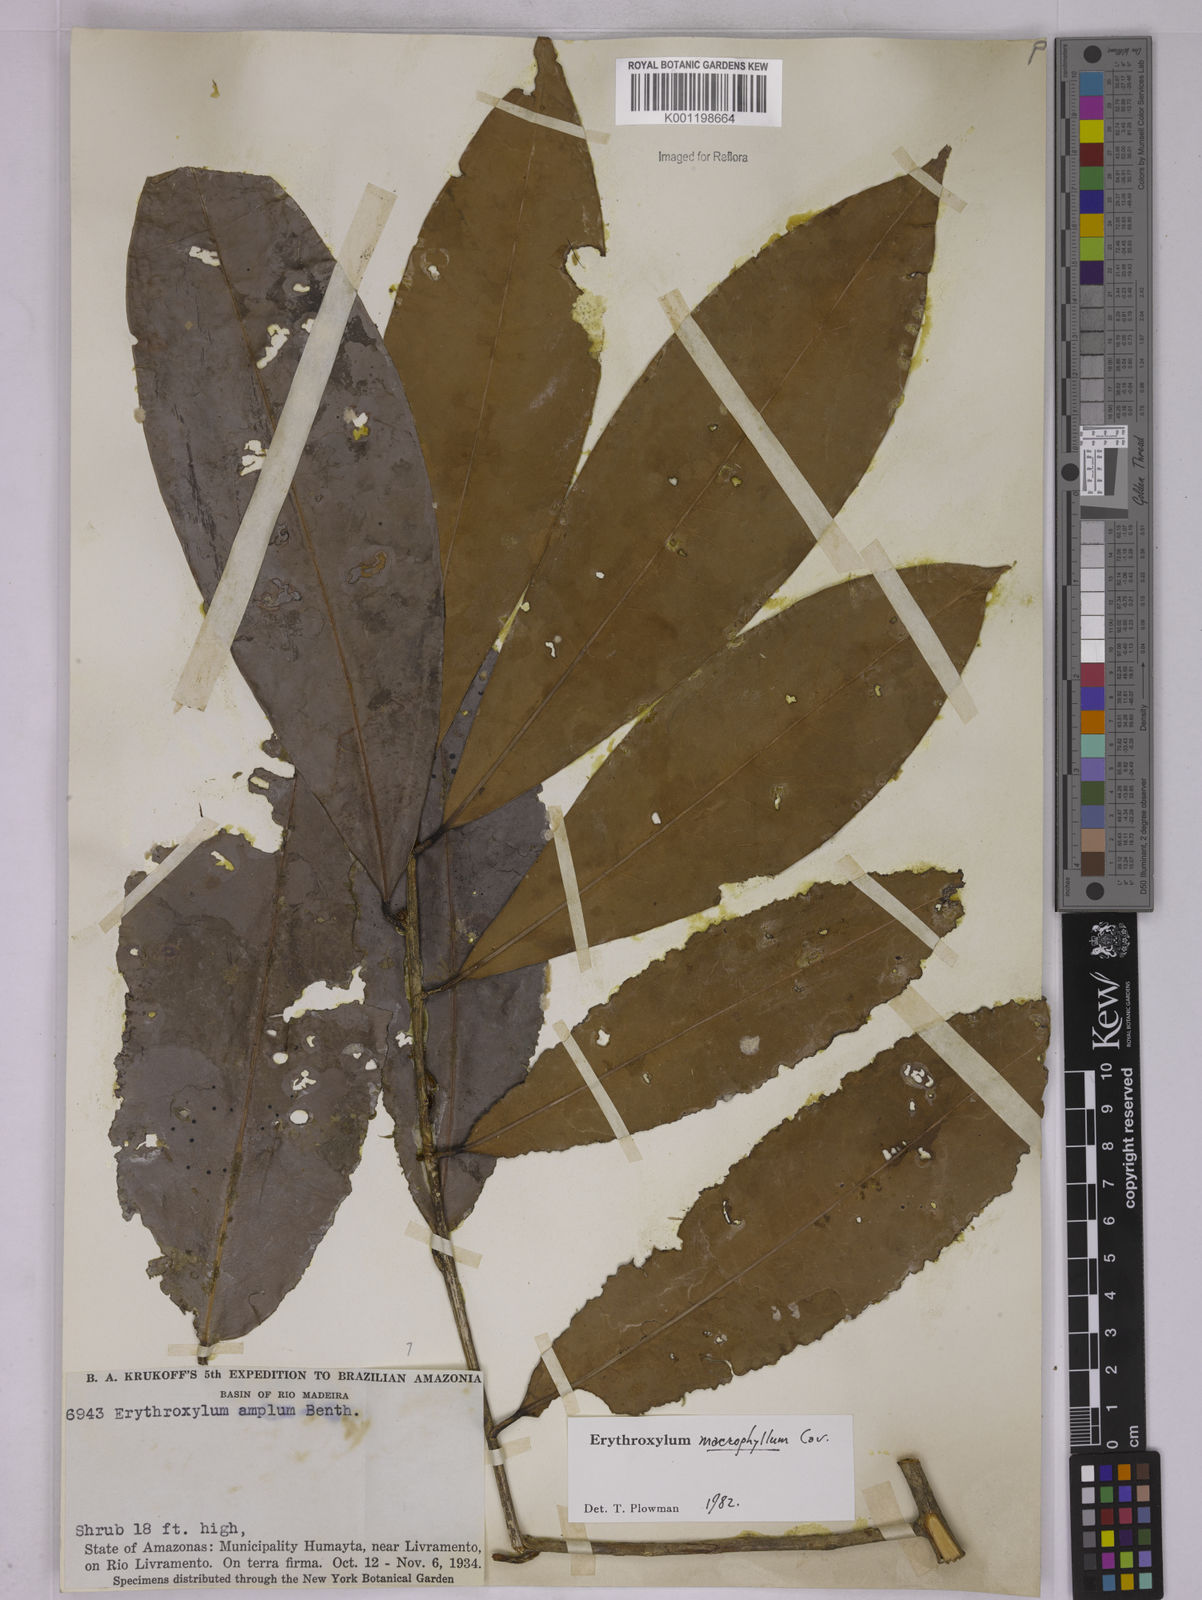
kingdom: Plantae
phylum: Tracheophyta
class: Magnoliopsida
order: Malpighiales
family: Erythroxylaceae
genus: Erythroxylum
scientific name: Erythroxylum macrophyllum
